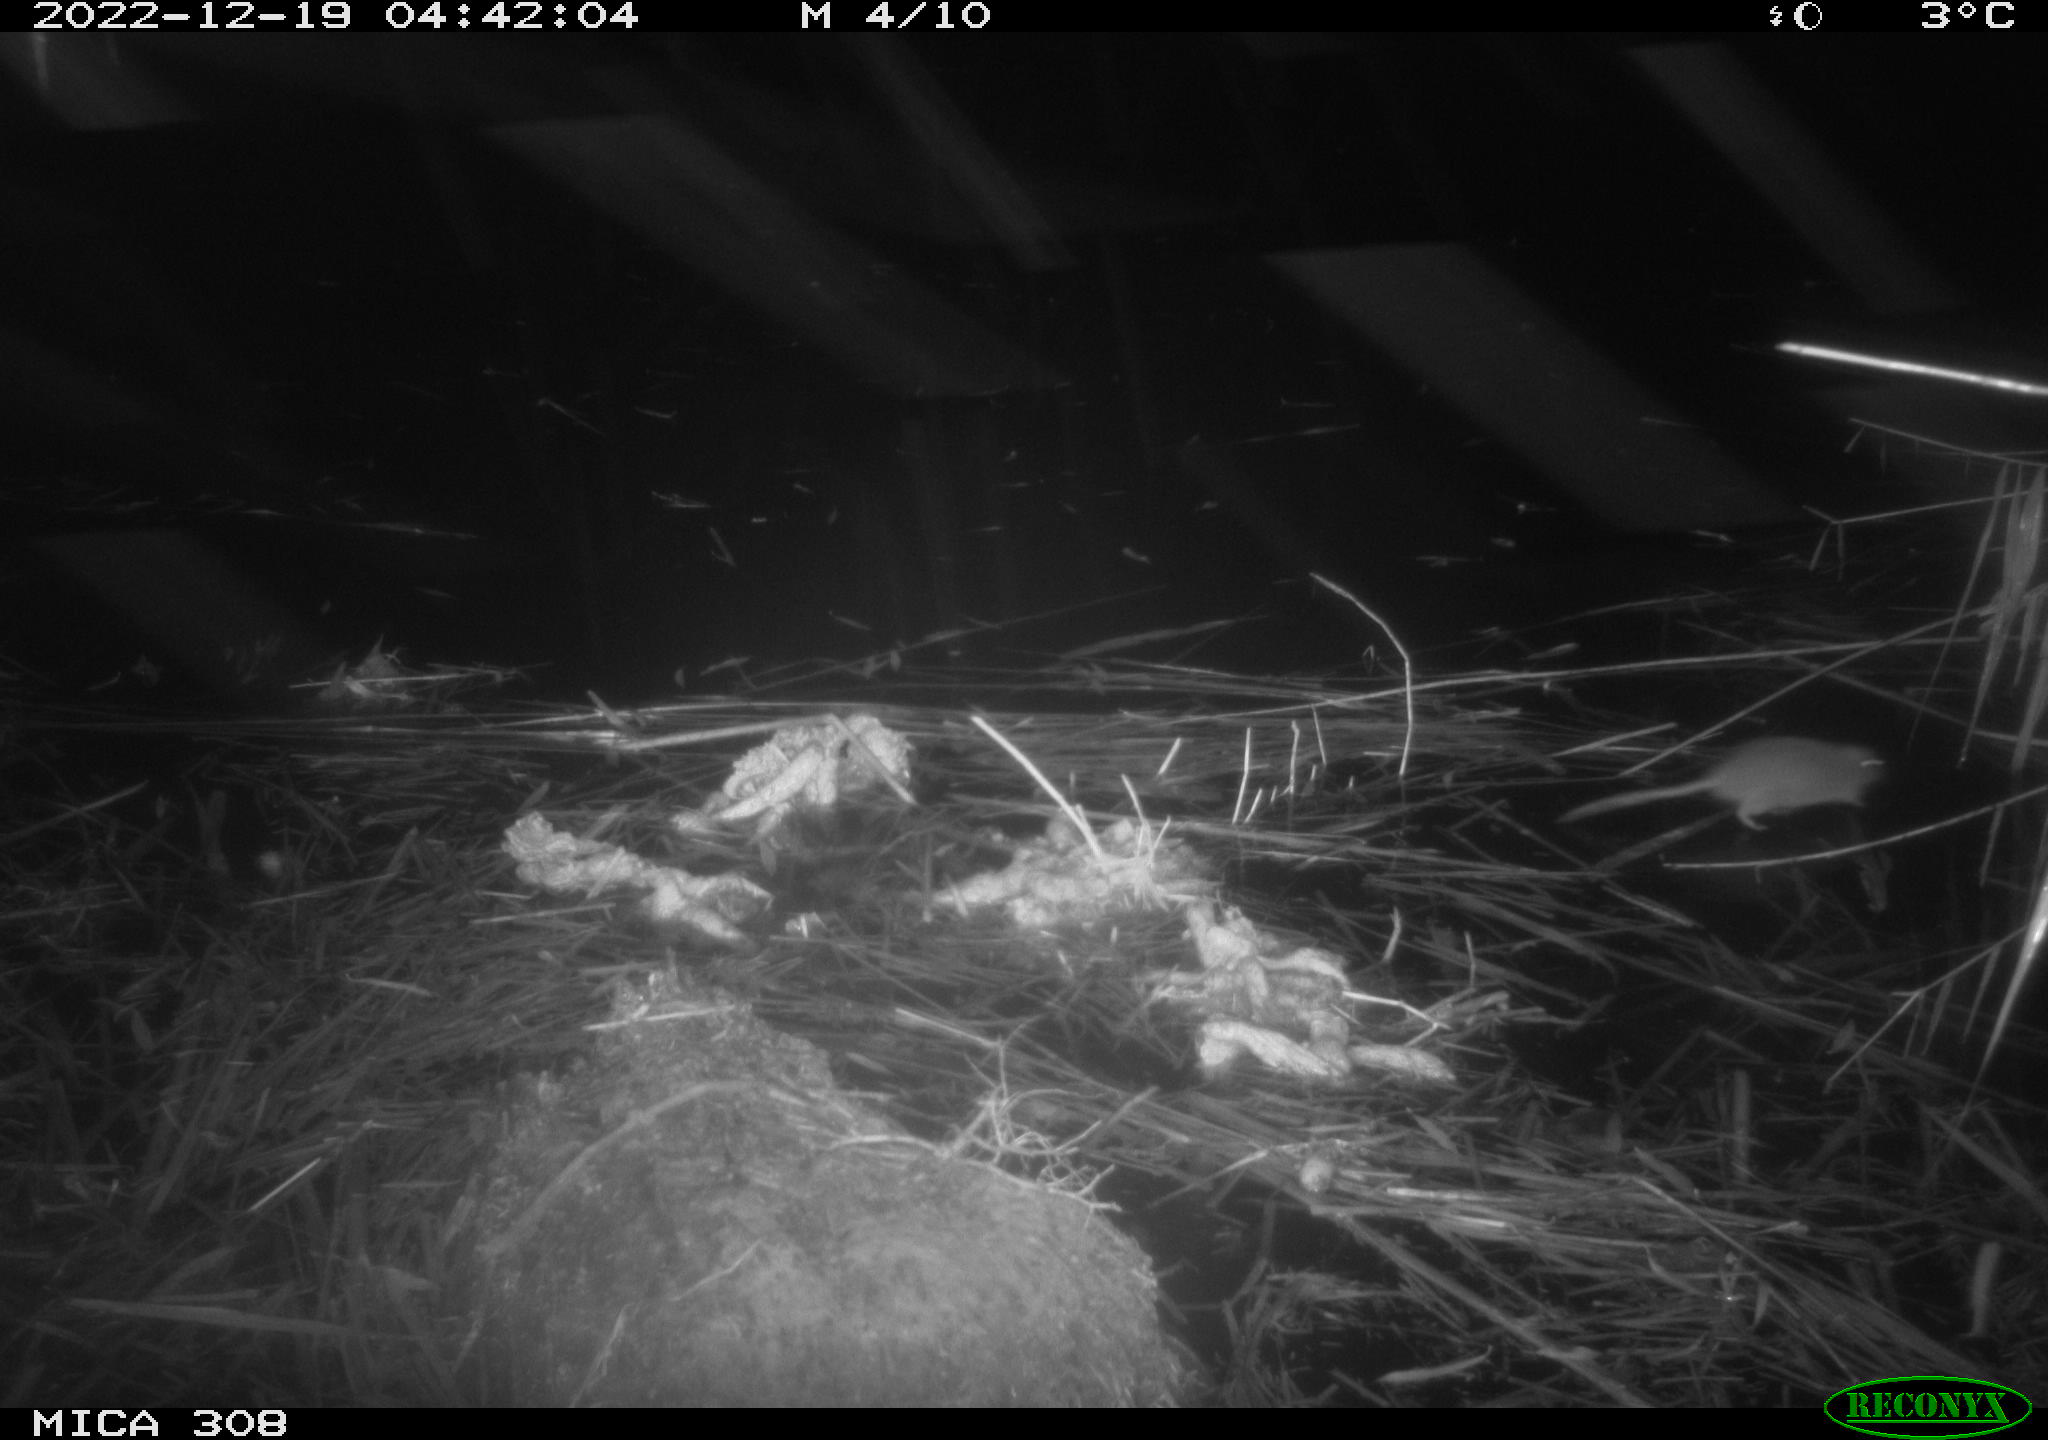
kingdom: Animalia
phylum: Chordata
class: Mammalia
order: Rodentia
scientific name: Rodentia
